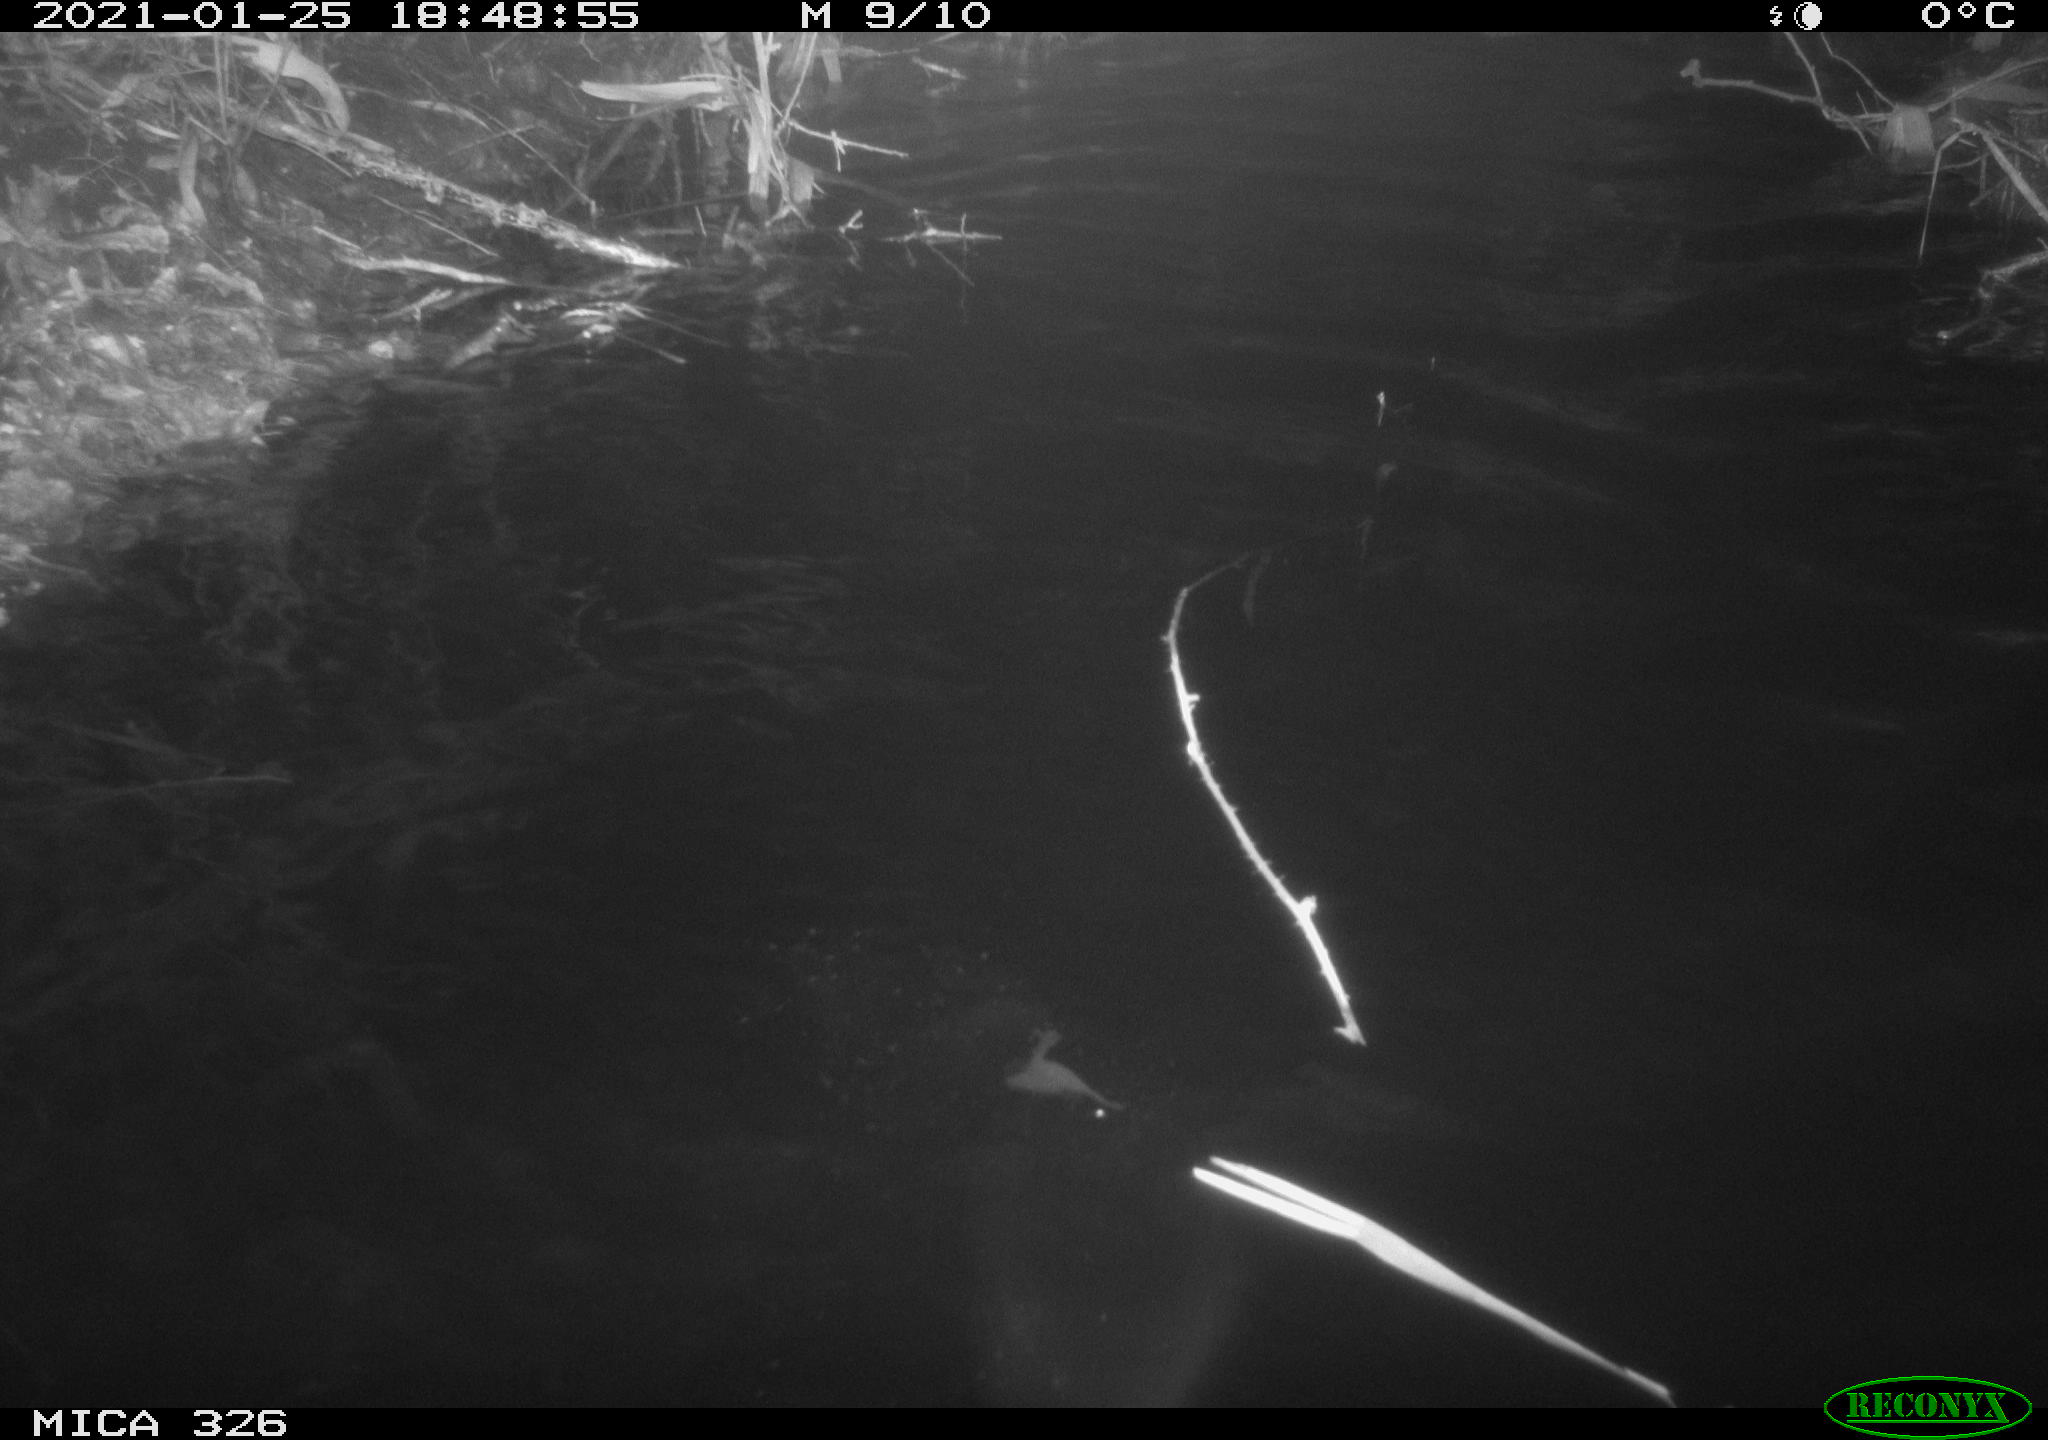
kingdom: Animalia
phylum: Chordata
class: Mammalia
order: Rodentia
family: Cricetidae
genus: Ondatra
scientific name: Ondatra zibethicus
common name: Muskrat
